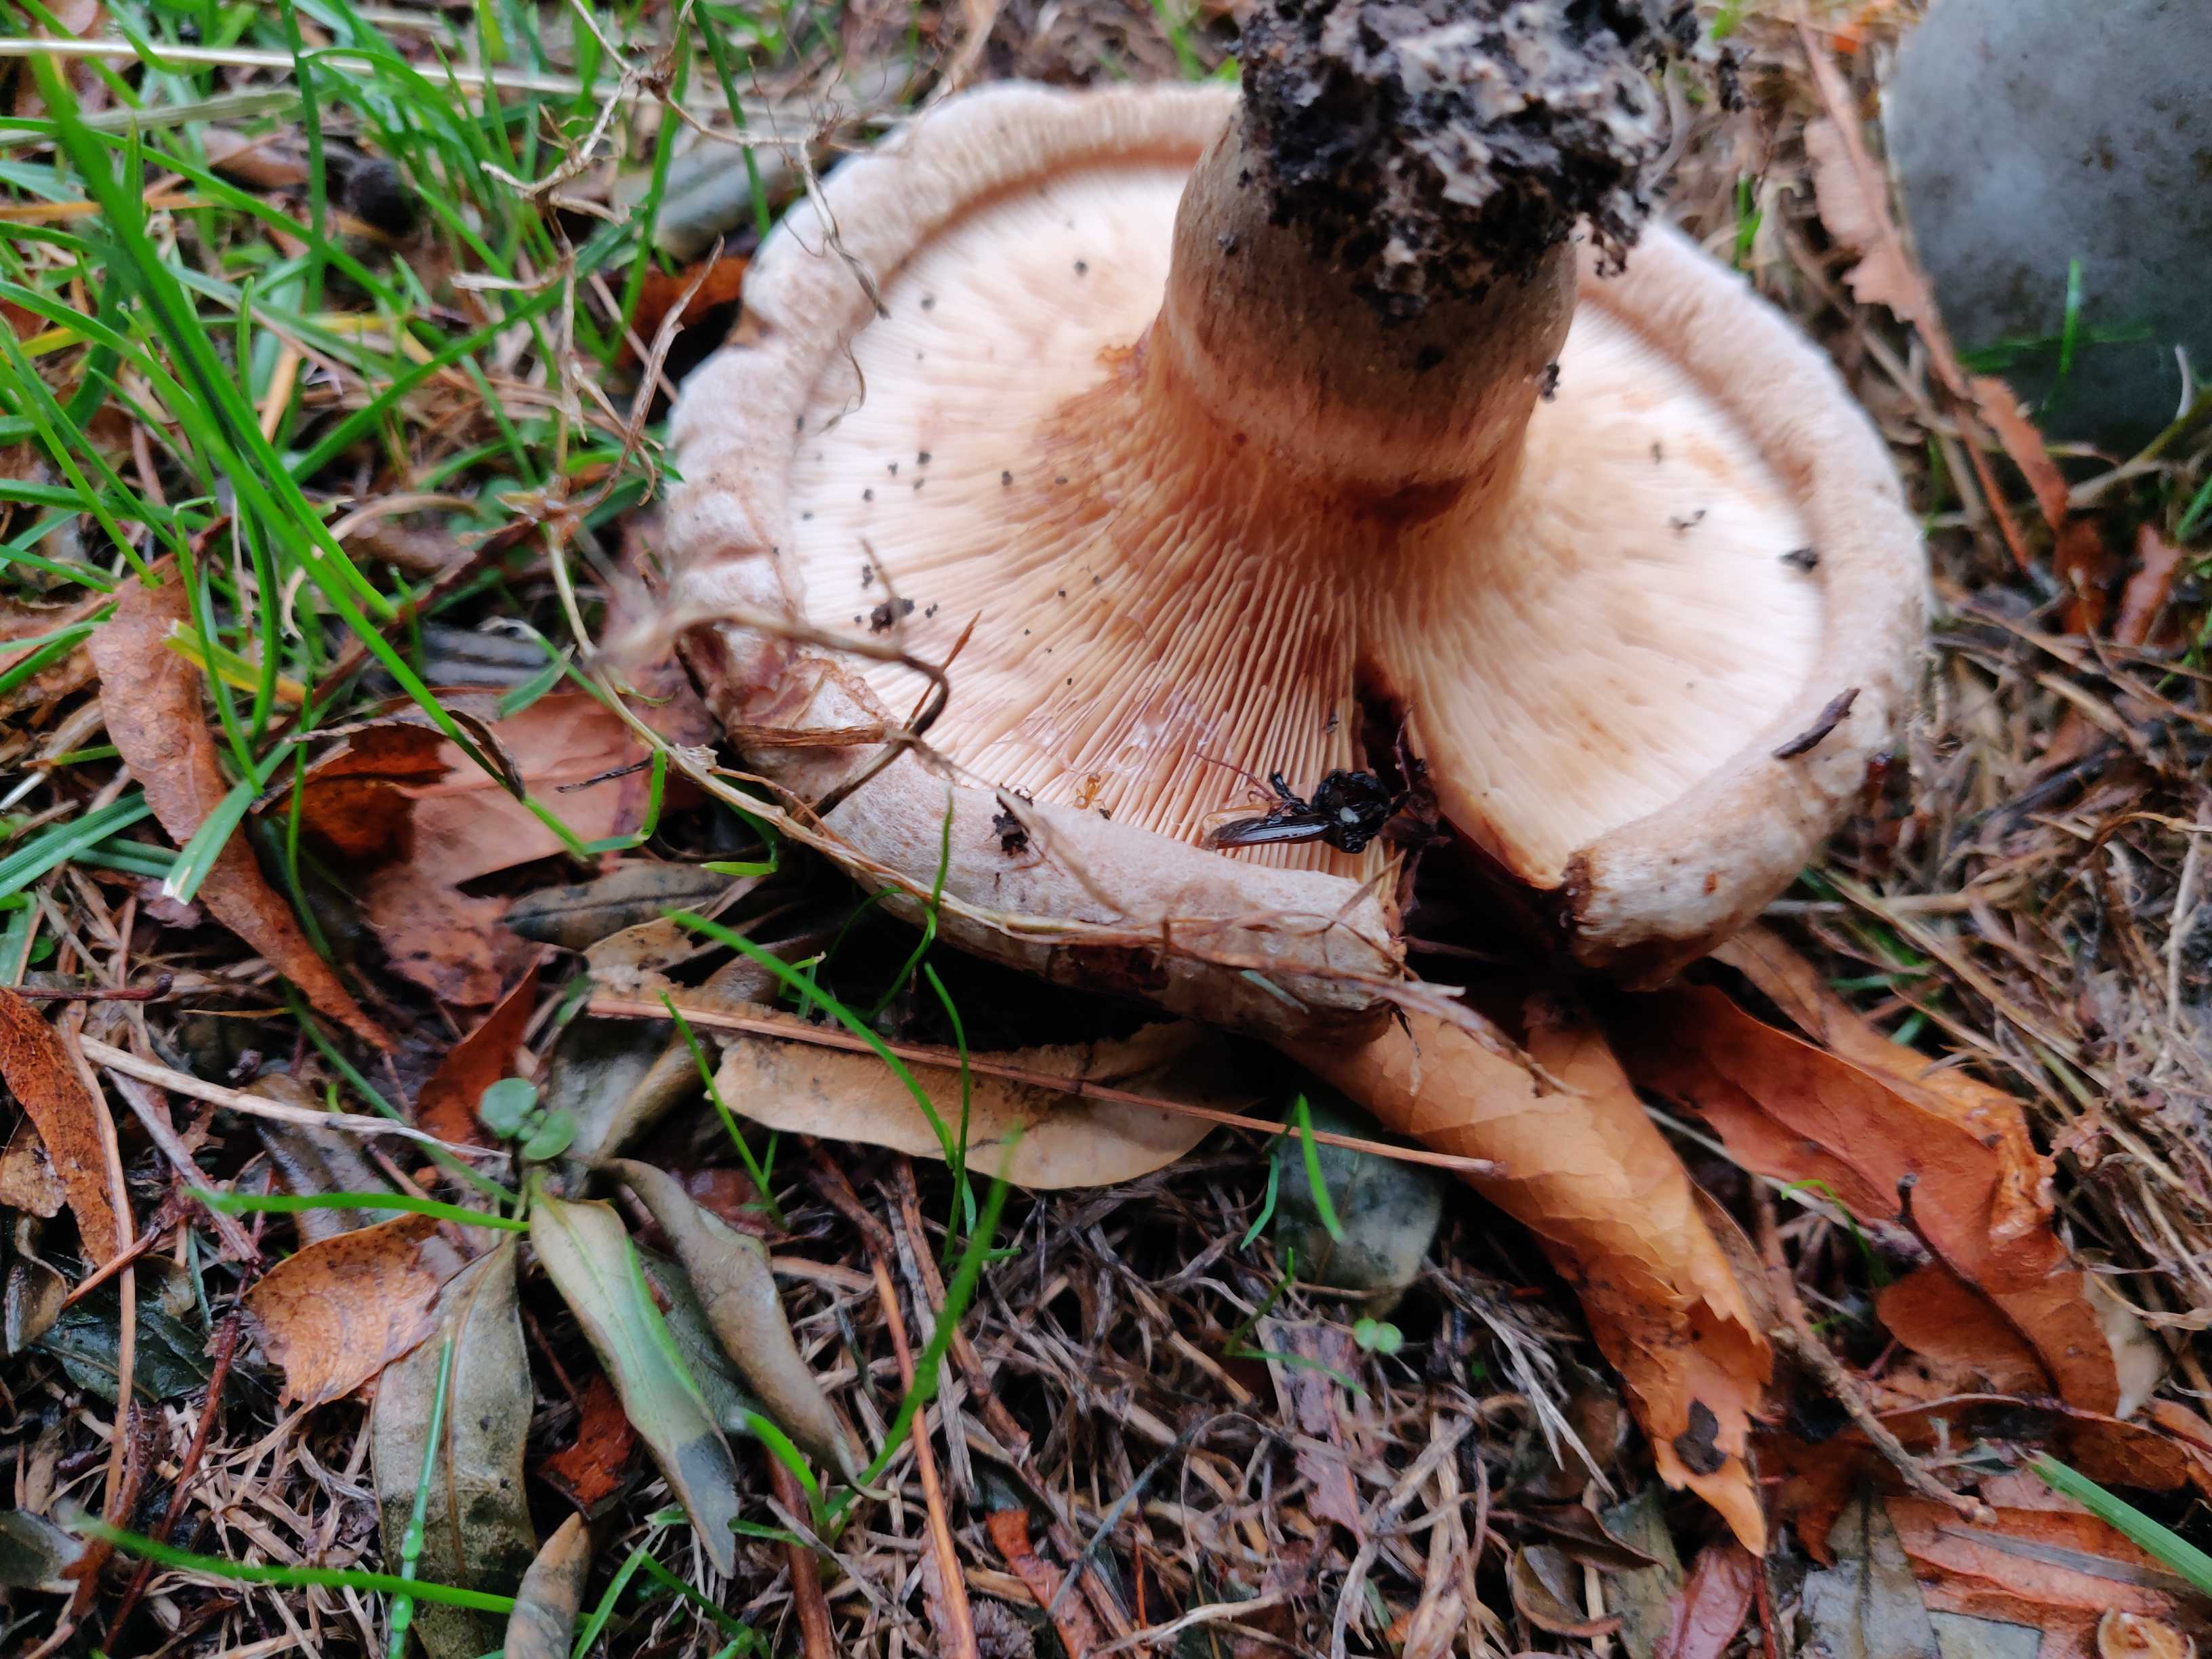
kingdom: Fungi
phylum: Basidiomycota
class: Agaricomycetes
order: Boletales
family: Paxillaceae
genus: Paxillus
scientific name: Paxillus
